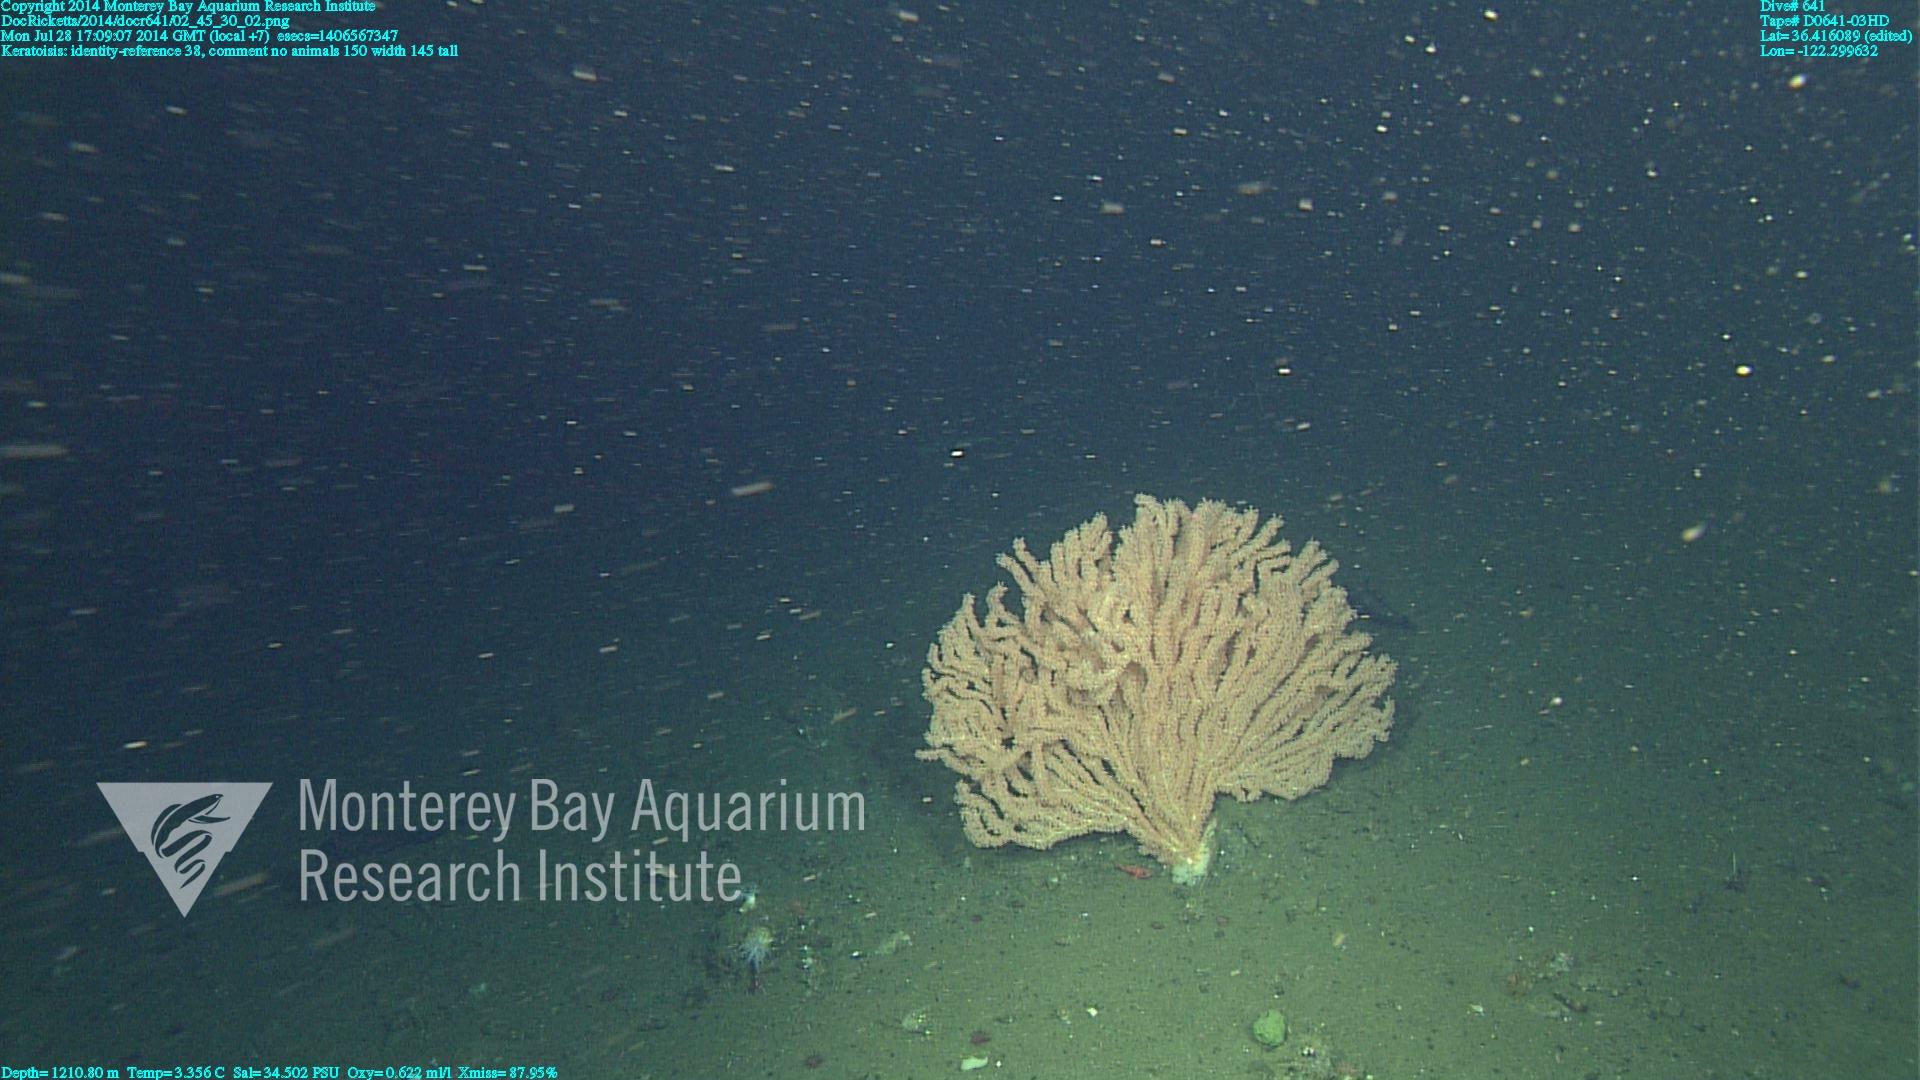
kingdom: Animalia
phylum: Cnidaria
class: Anthozoa
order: Scleralcyonacea
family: Keratoisididae
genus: Keratoisis
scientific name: Keratoisis
